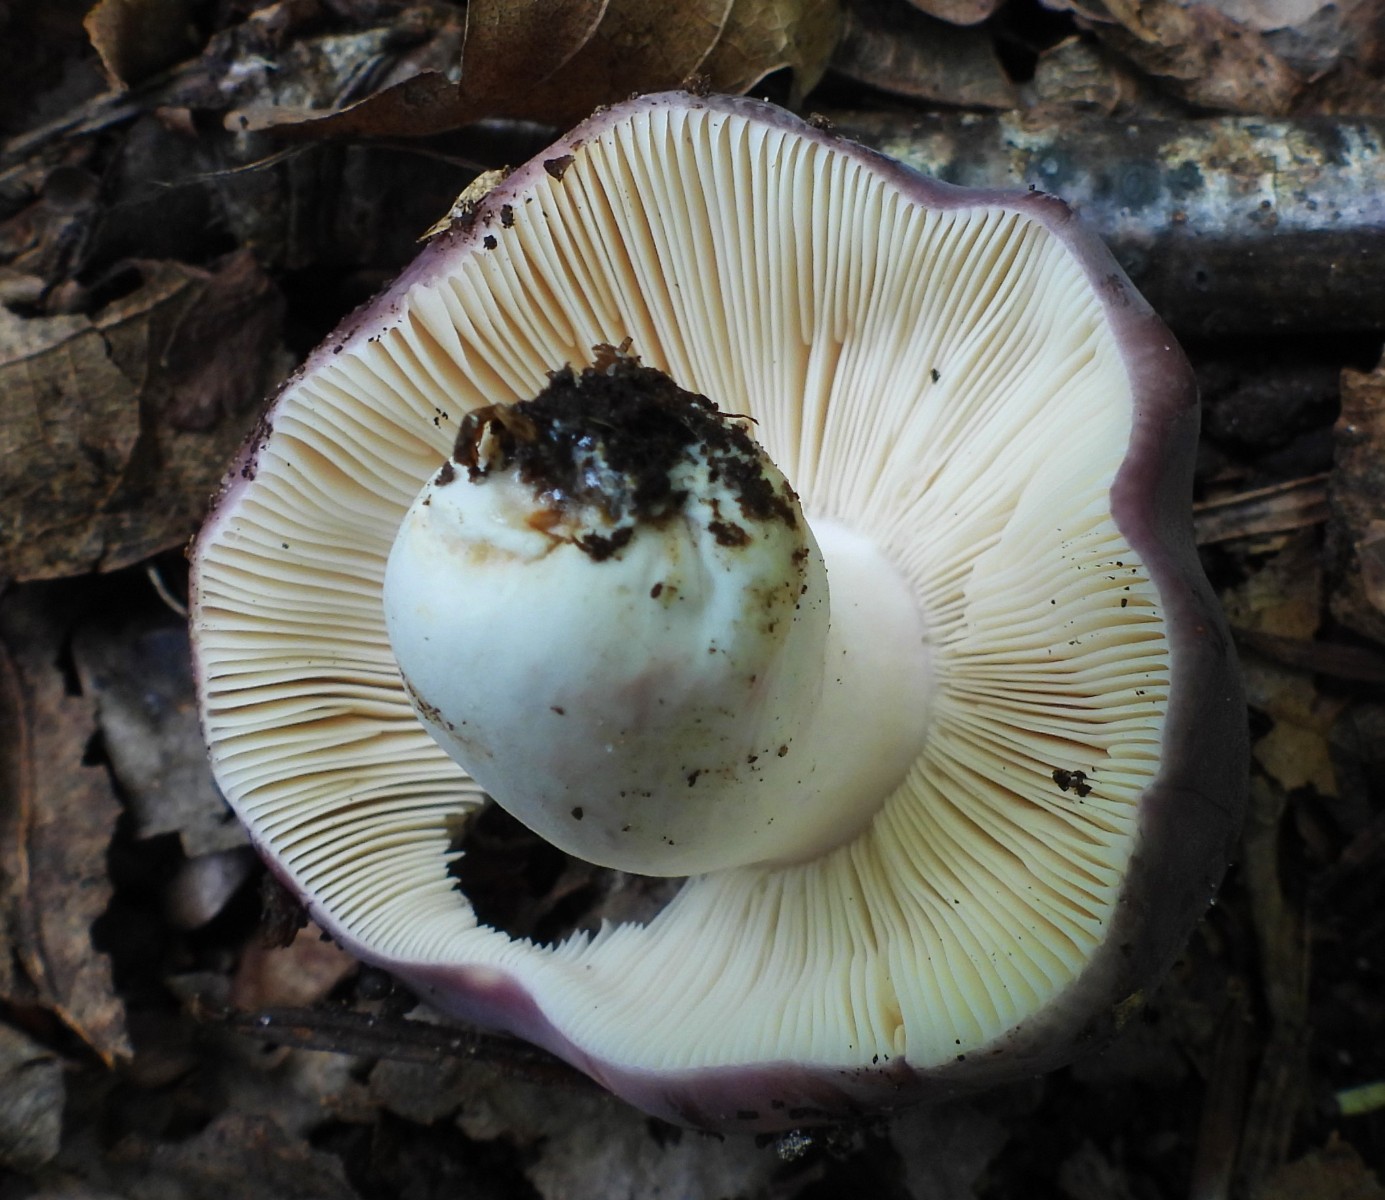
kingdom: Fungi
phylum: Basidiomycota
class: Agaricomycetes
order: Russulales
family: Russulaceae
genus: Russula
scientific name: Russula cyanoxantha
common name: broget skørhat
